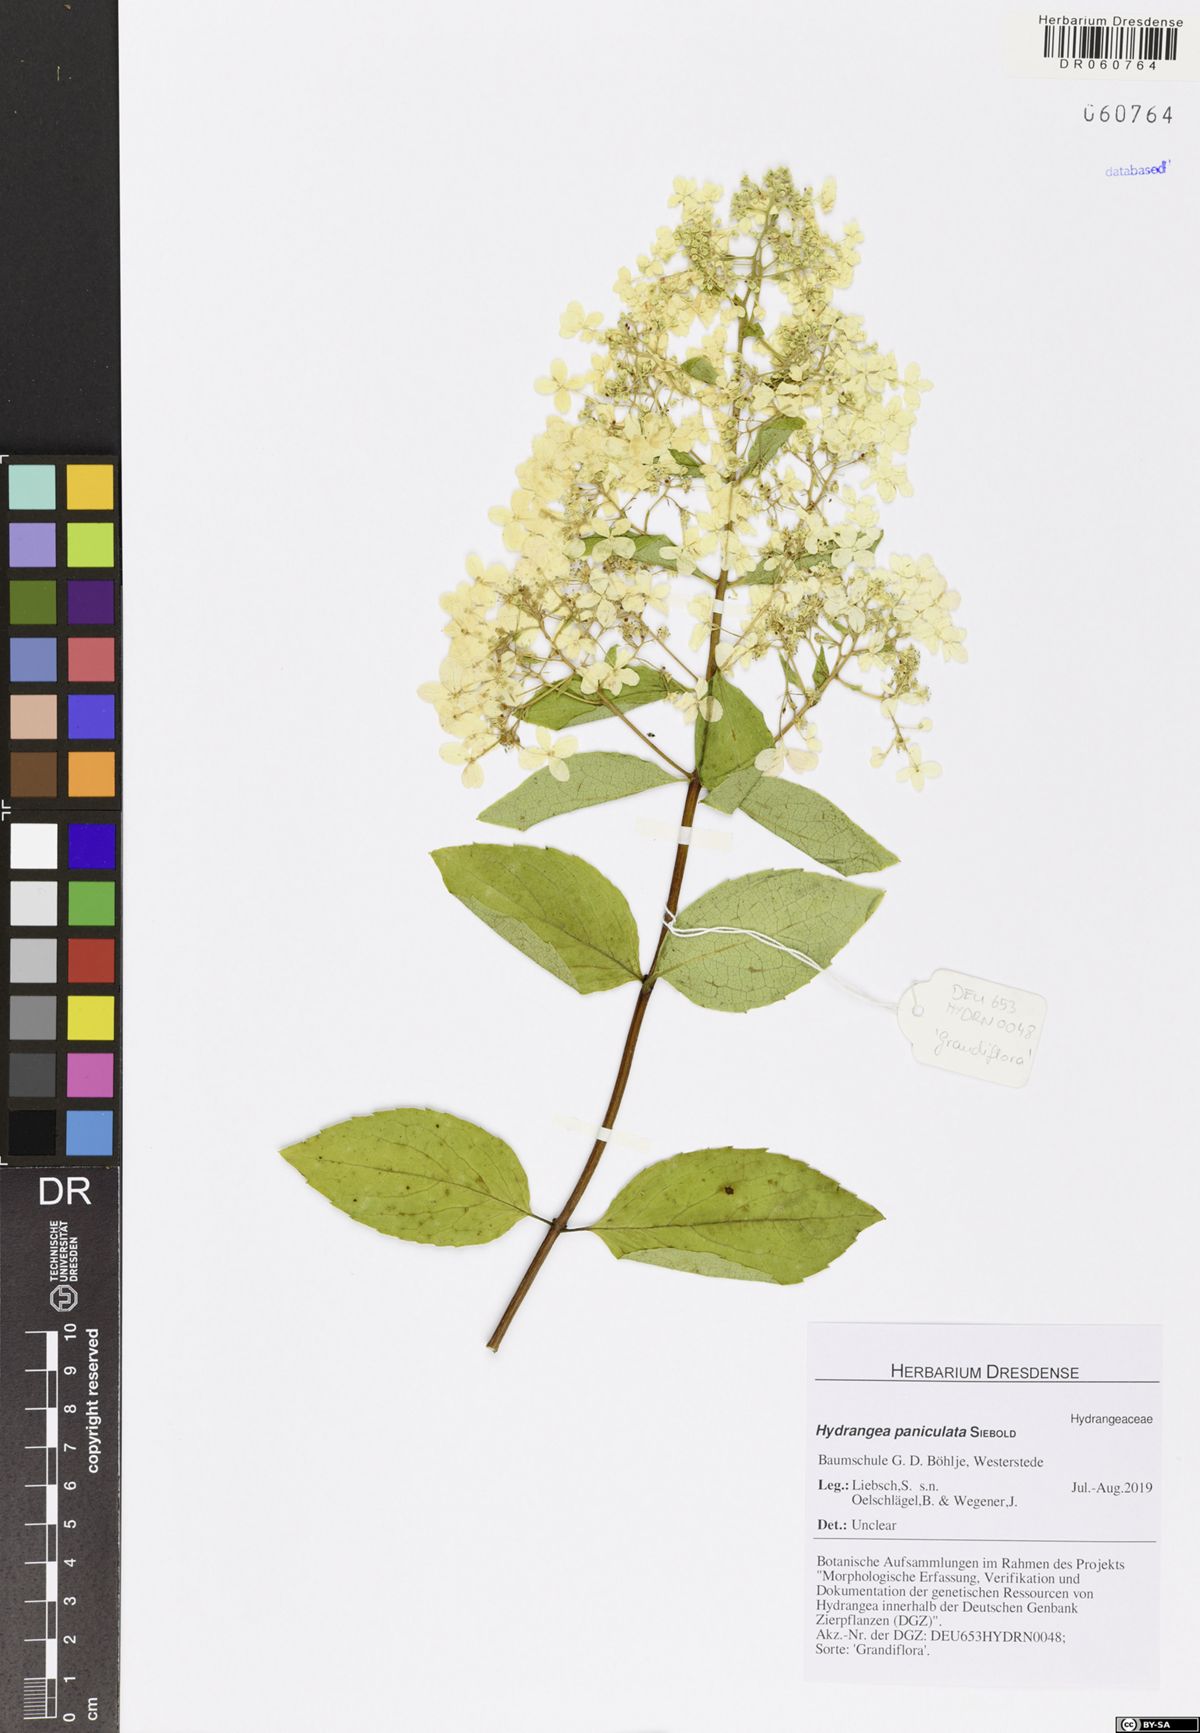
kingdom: Plantae
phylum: Tracheophyta
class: Magnoliopsida
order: Cornales
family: Hydrangeaceae
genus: Hydrangea
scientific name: Hydrangea paniculata
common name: Panicled hydrangea
